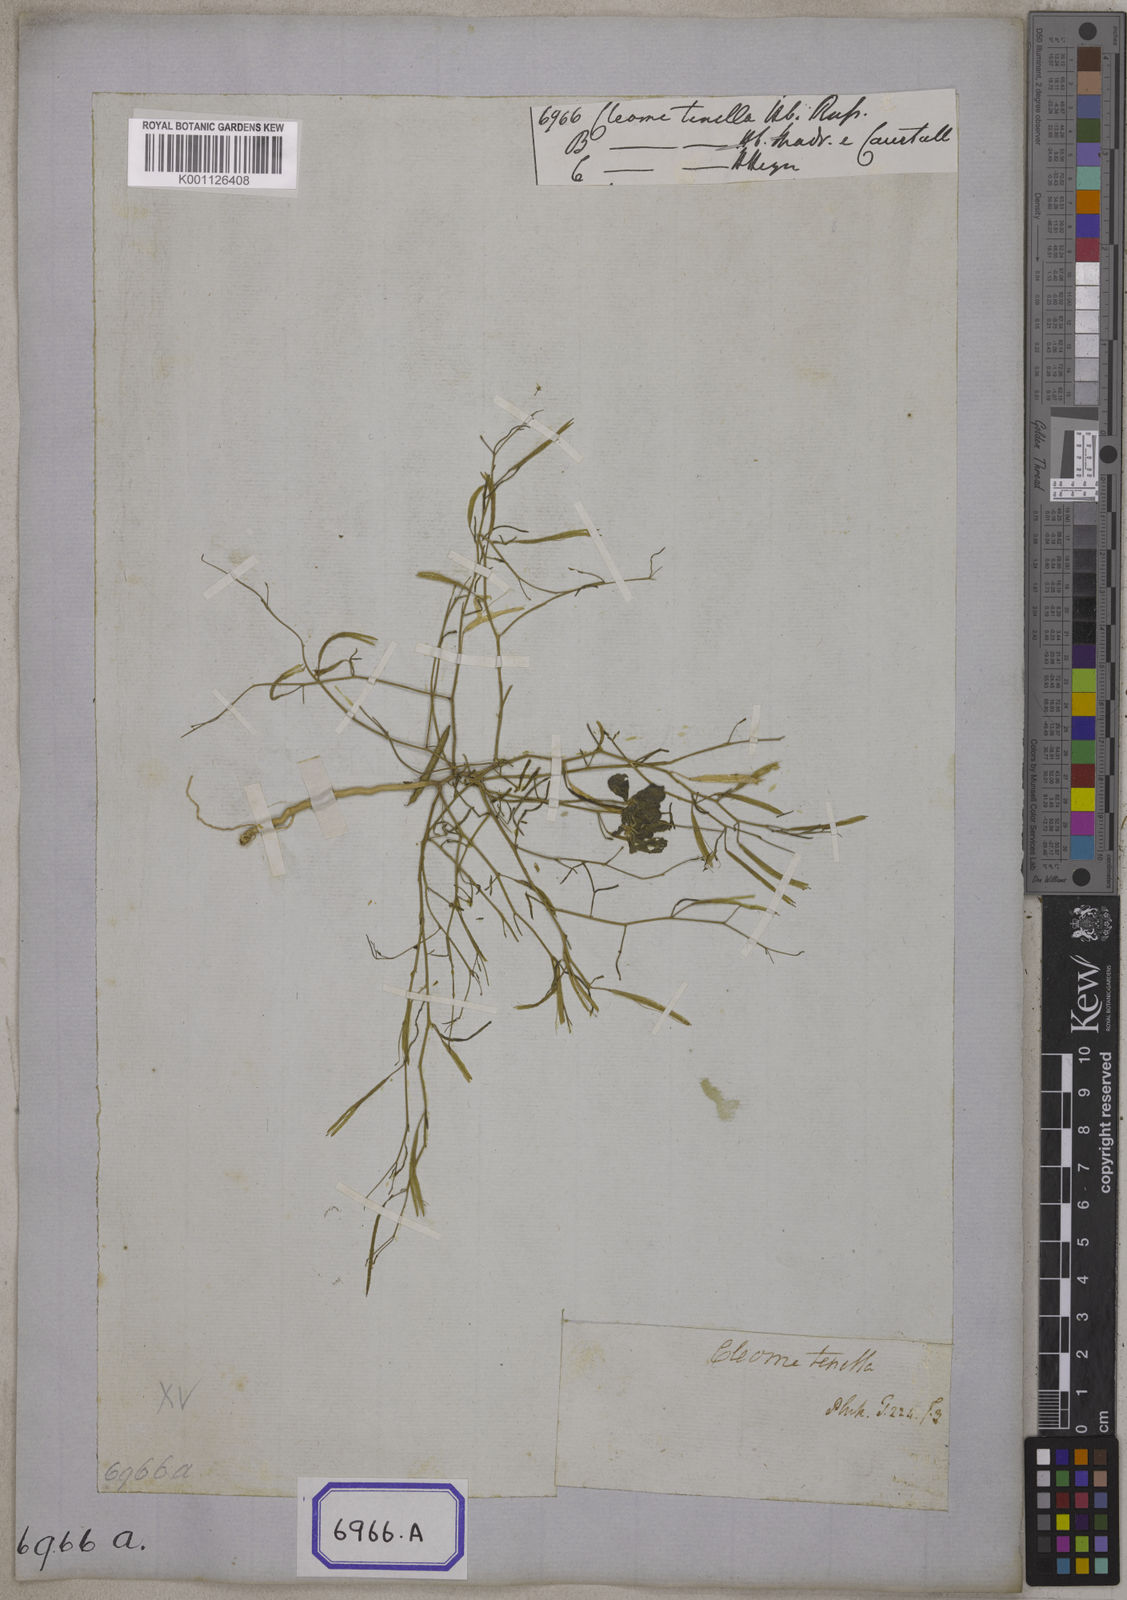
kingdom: Plantae
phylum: Tracheophyta
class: Magnoliopsida
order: Brassicales
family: Cleomaceae
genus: Coalisina
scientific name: Coalisina tenella
